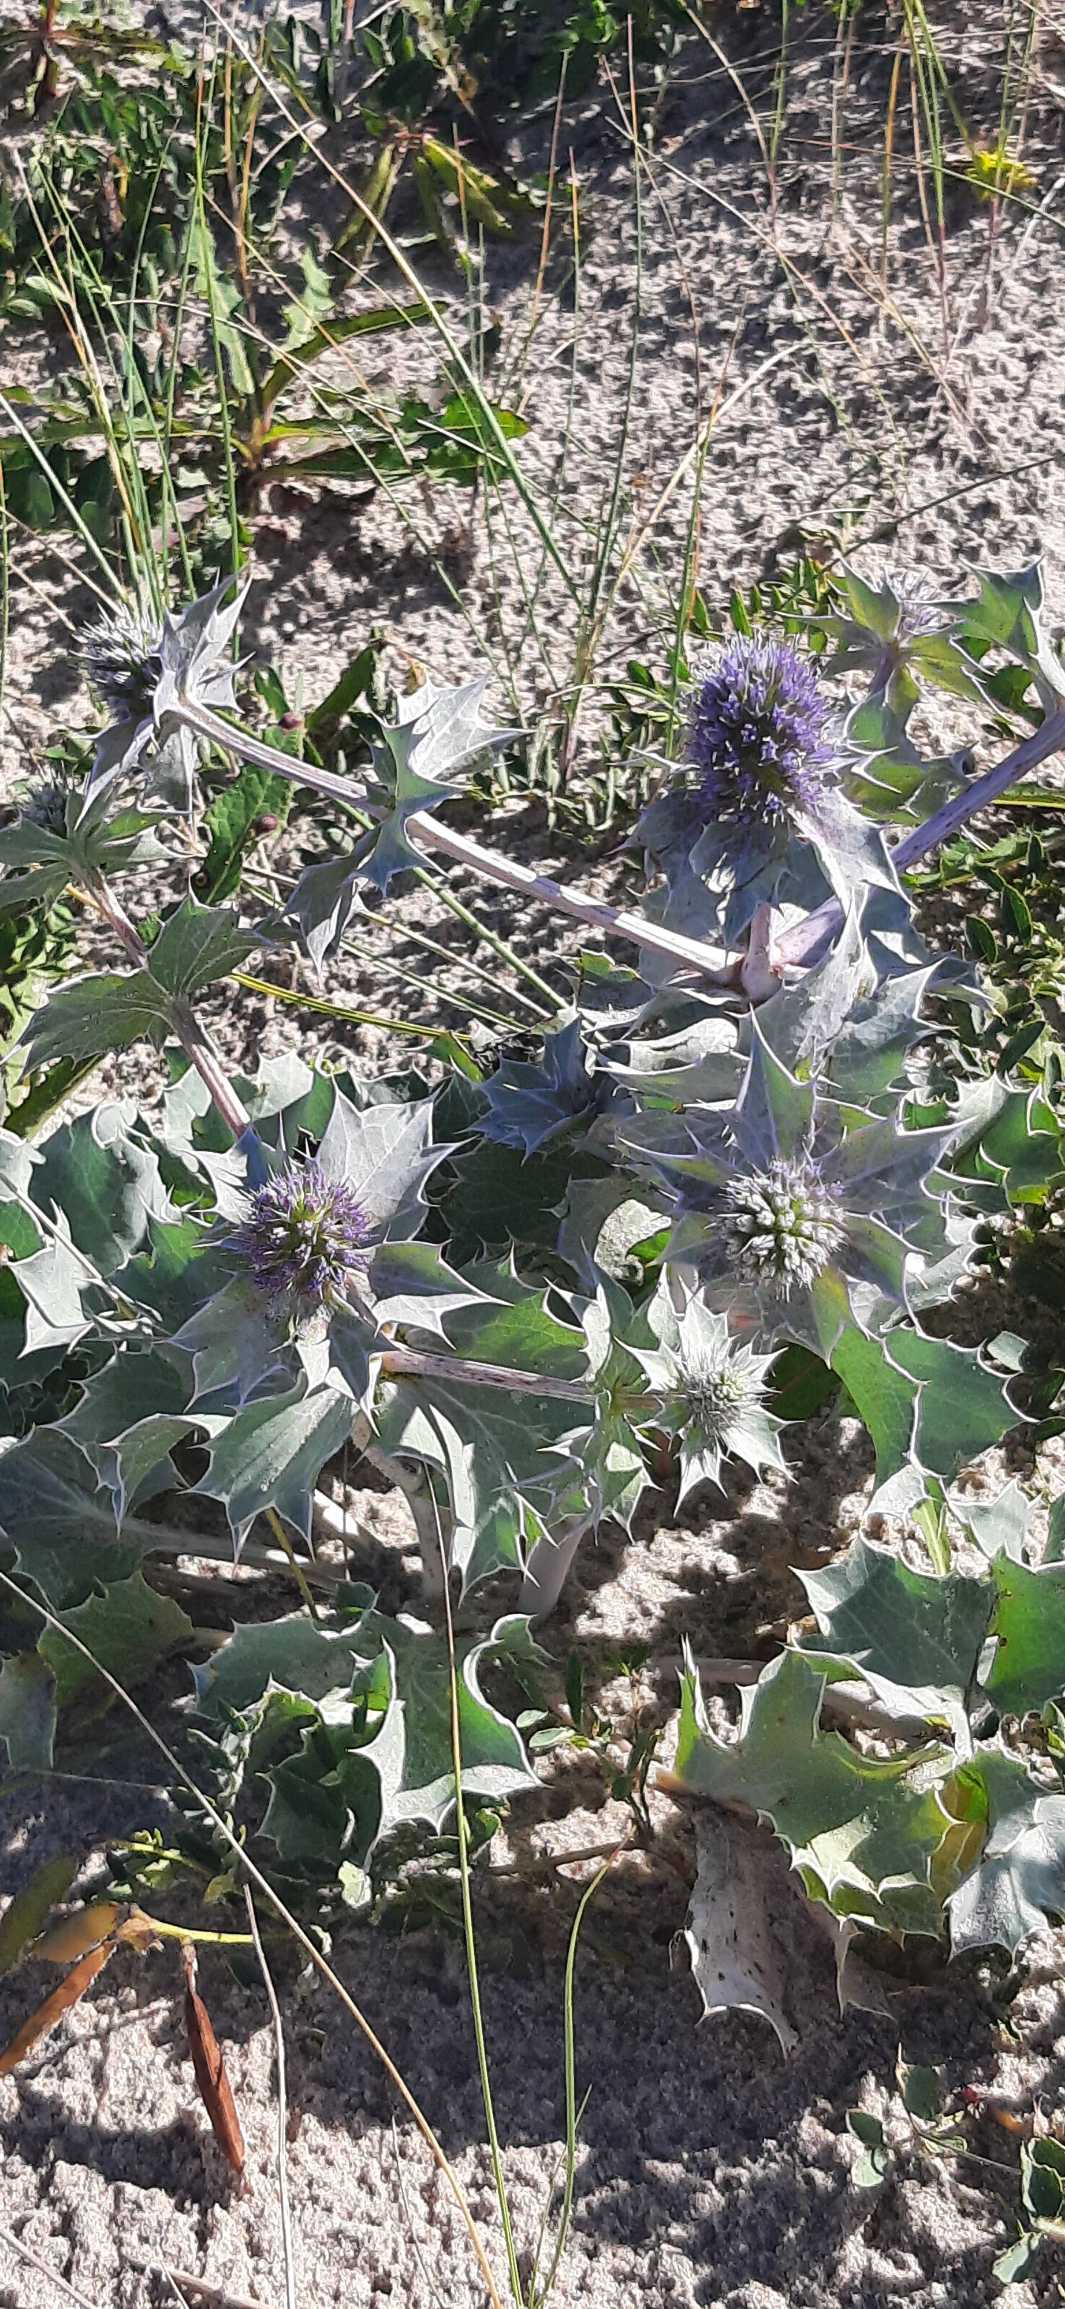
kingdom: Plantae
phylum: Tracheophyta
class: Magnoliopsida
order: Apiales
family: Apiaceae
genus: Eryngium
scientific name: Eryngium maritimum
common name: Strand-mandstro
